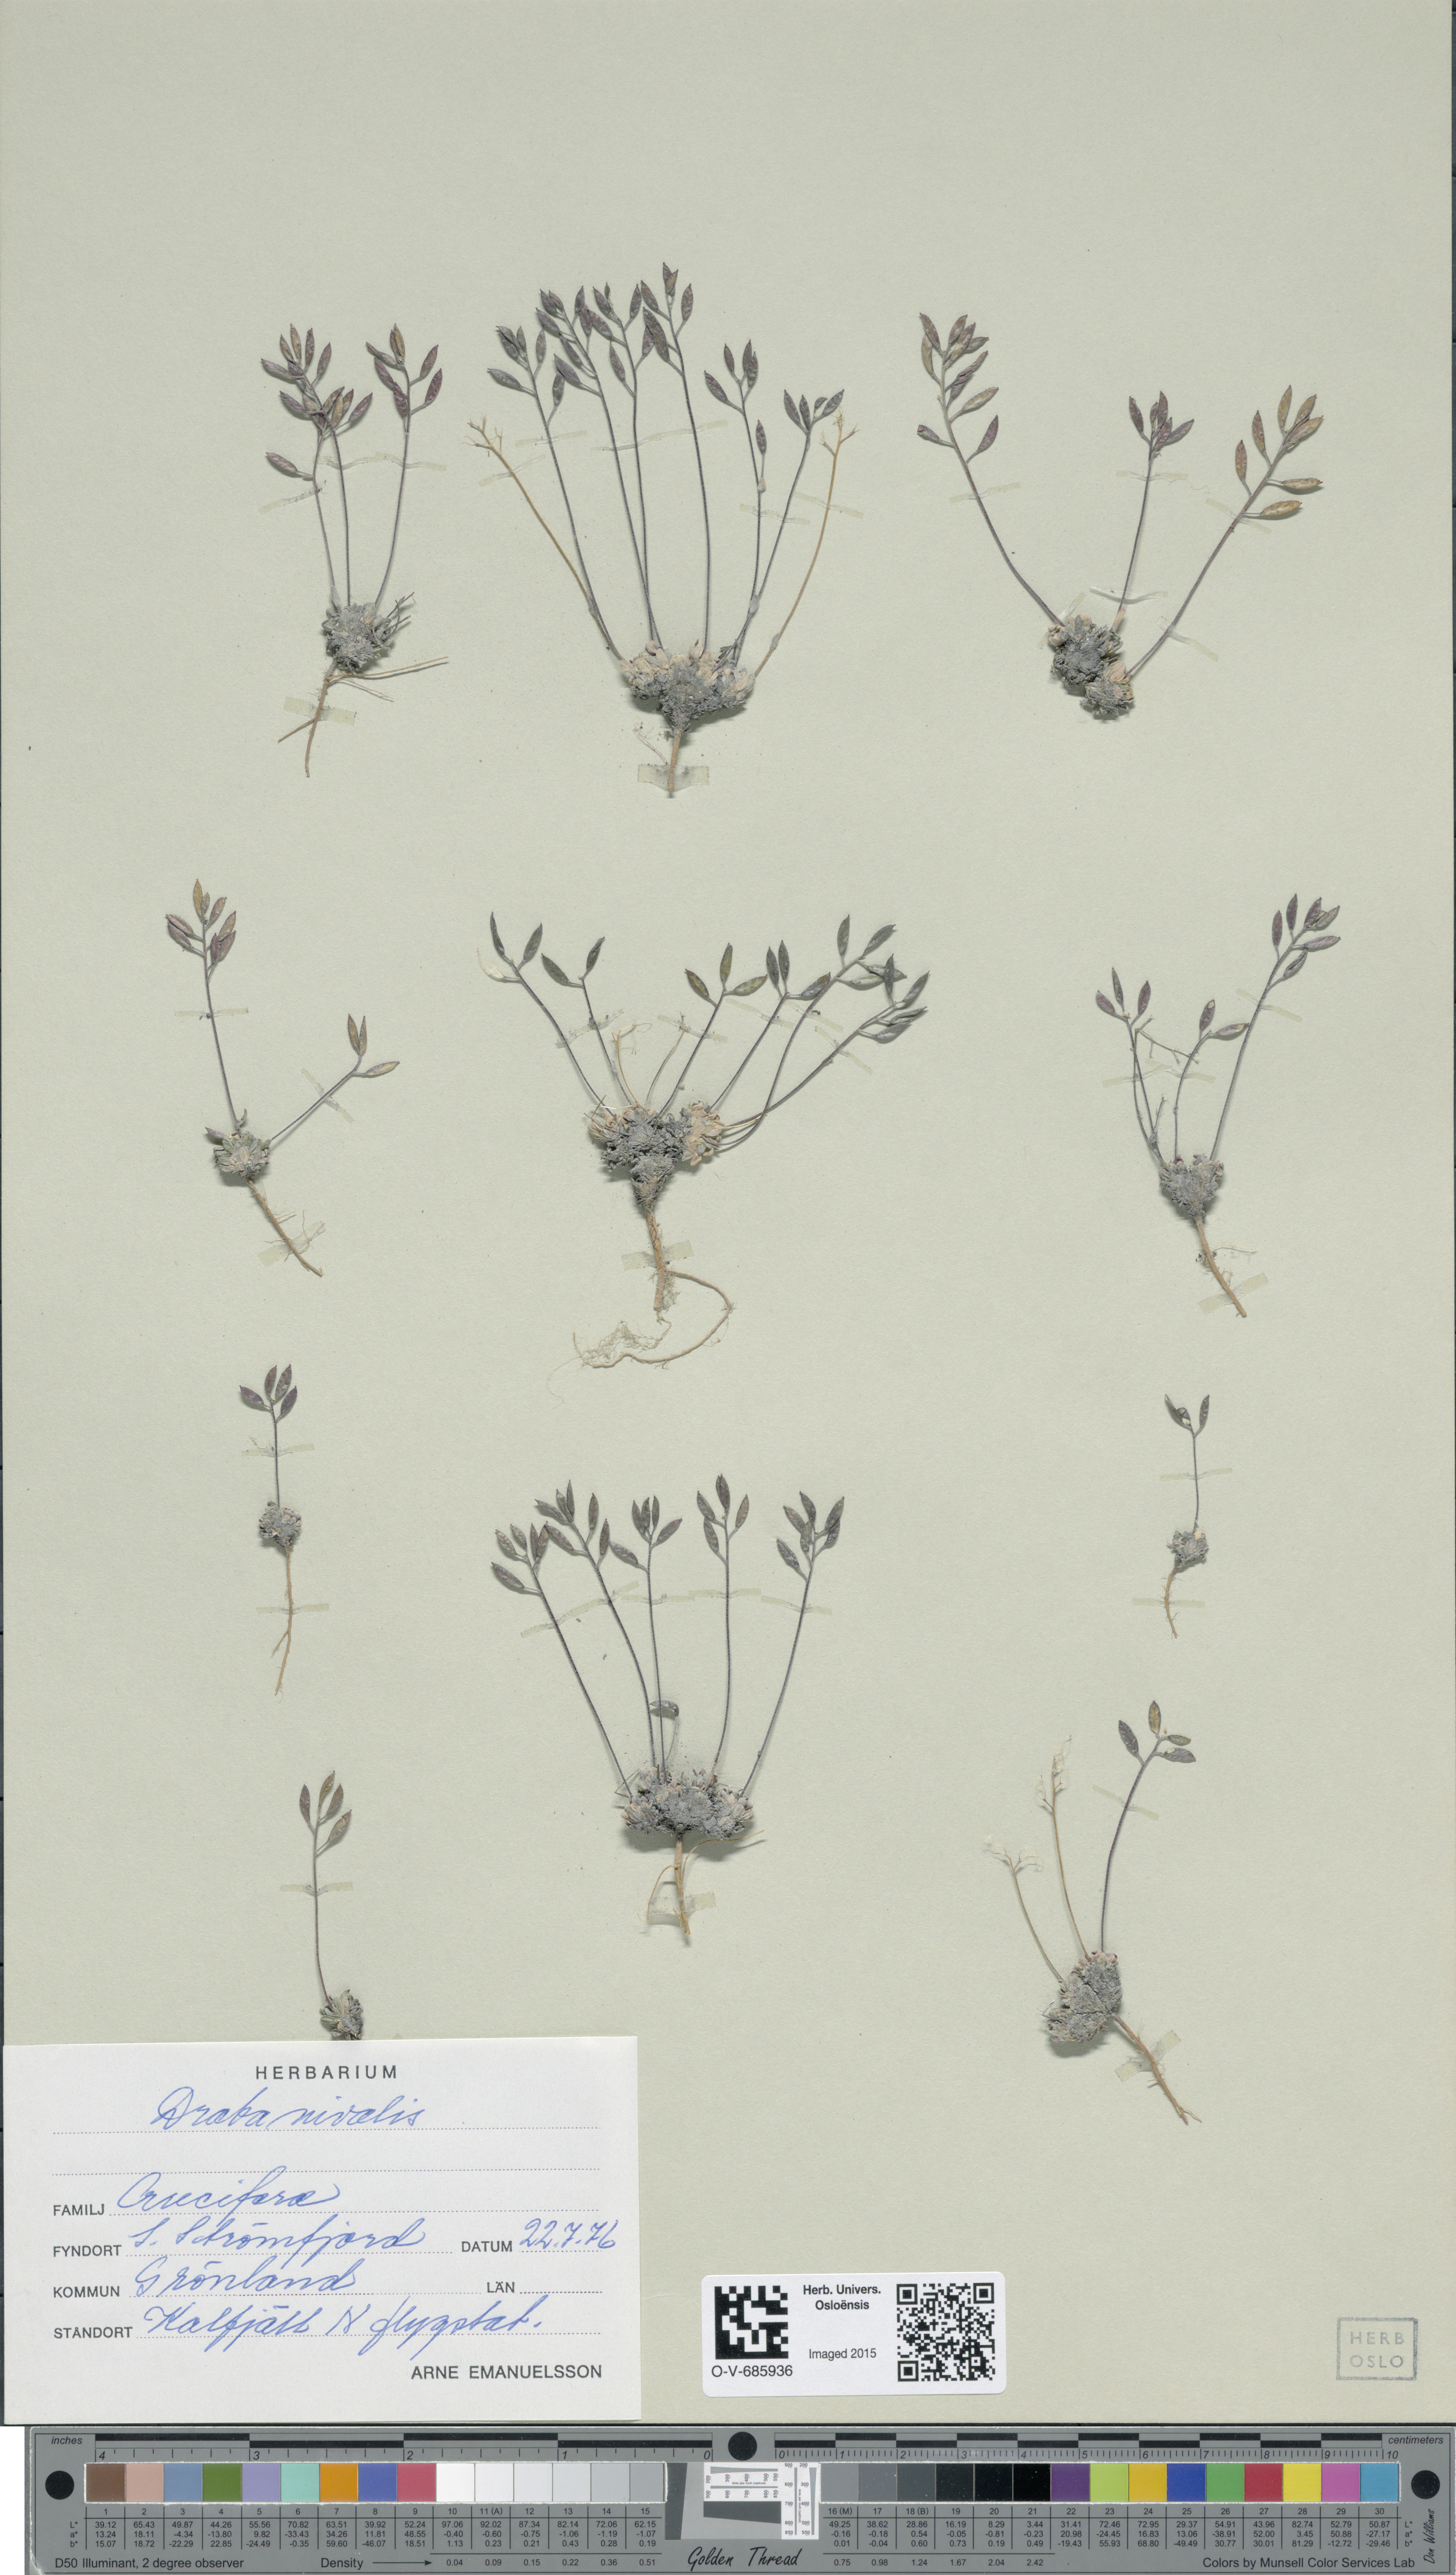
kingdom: Plantae
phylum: Tracheophyta
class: Magnoliopsida
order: Brassicales
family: Brassicaceae
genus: Draba
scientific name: Draba nivalis
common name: Snow draba
